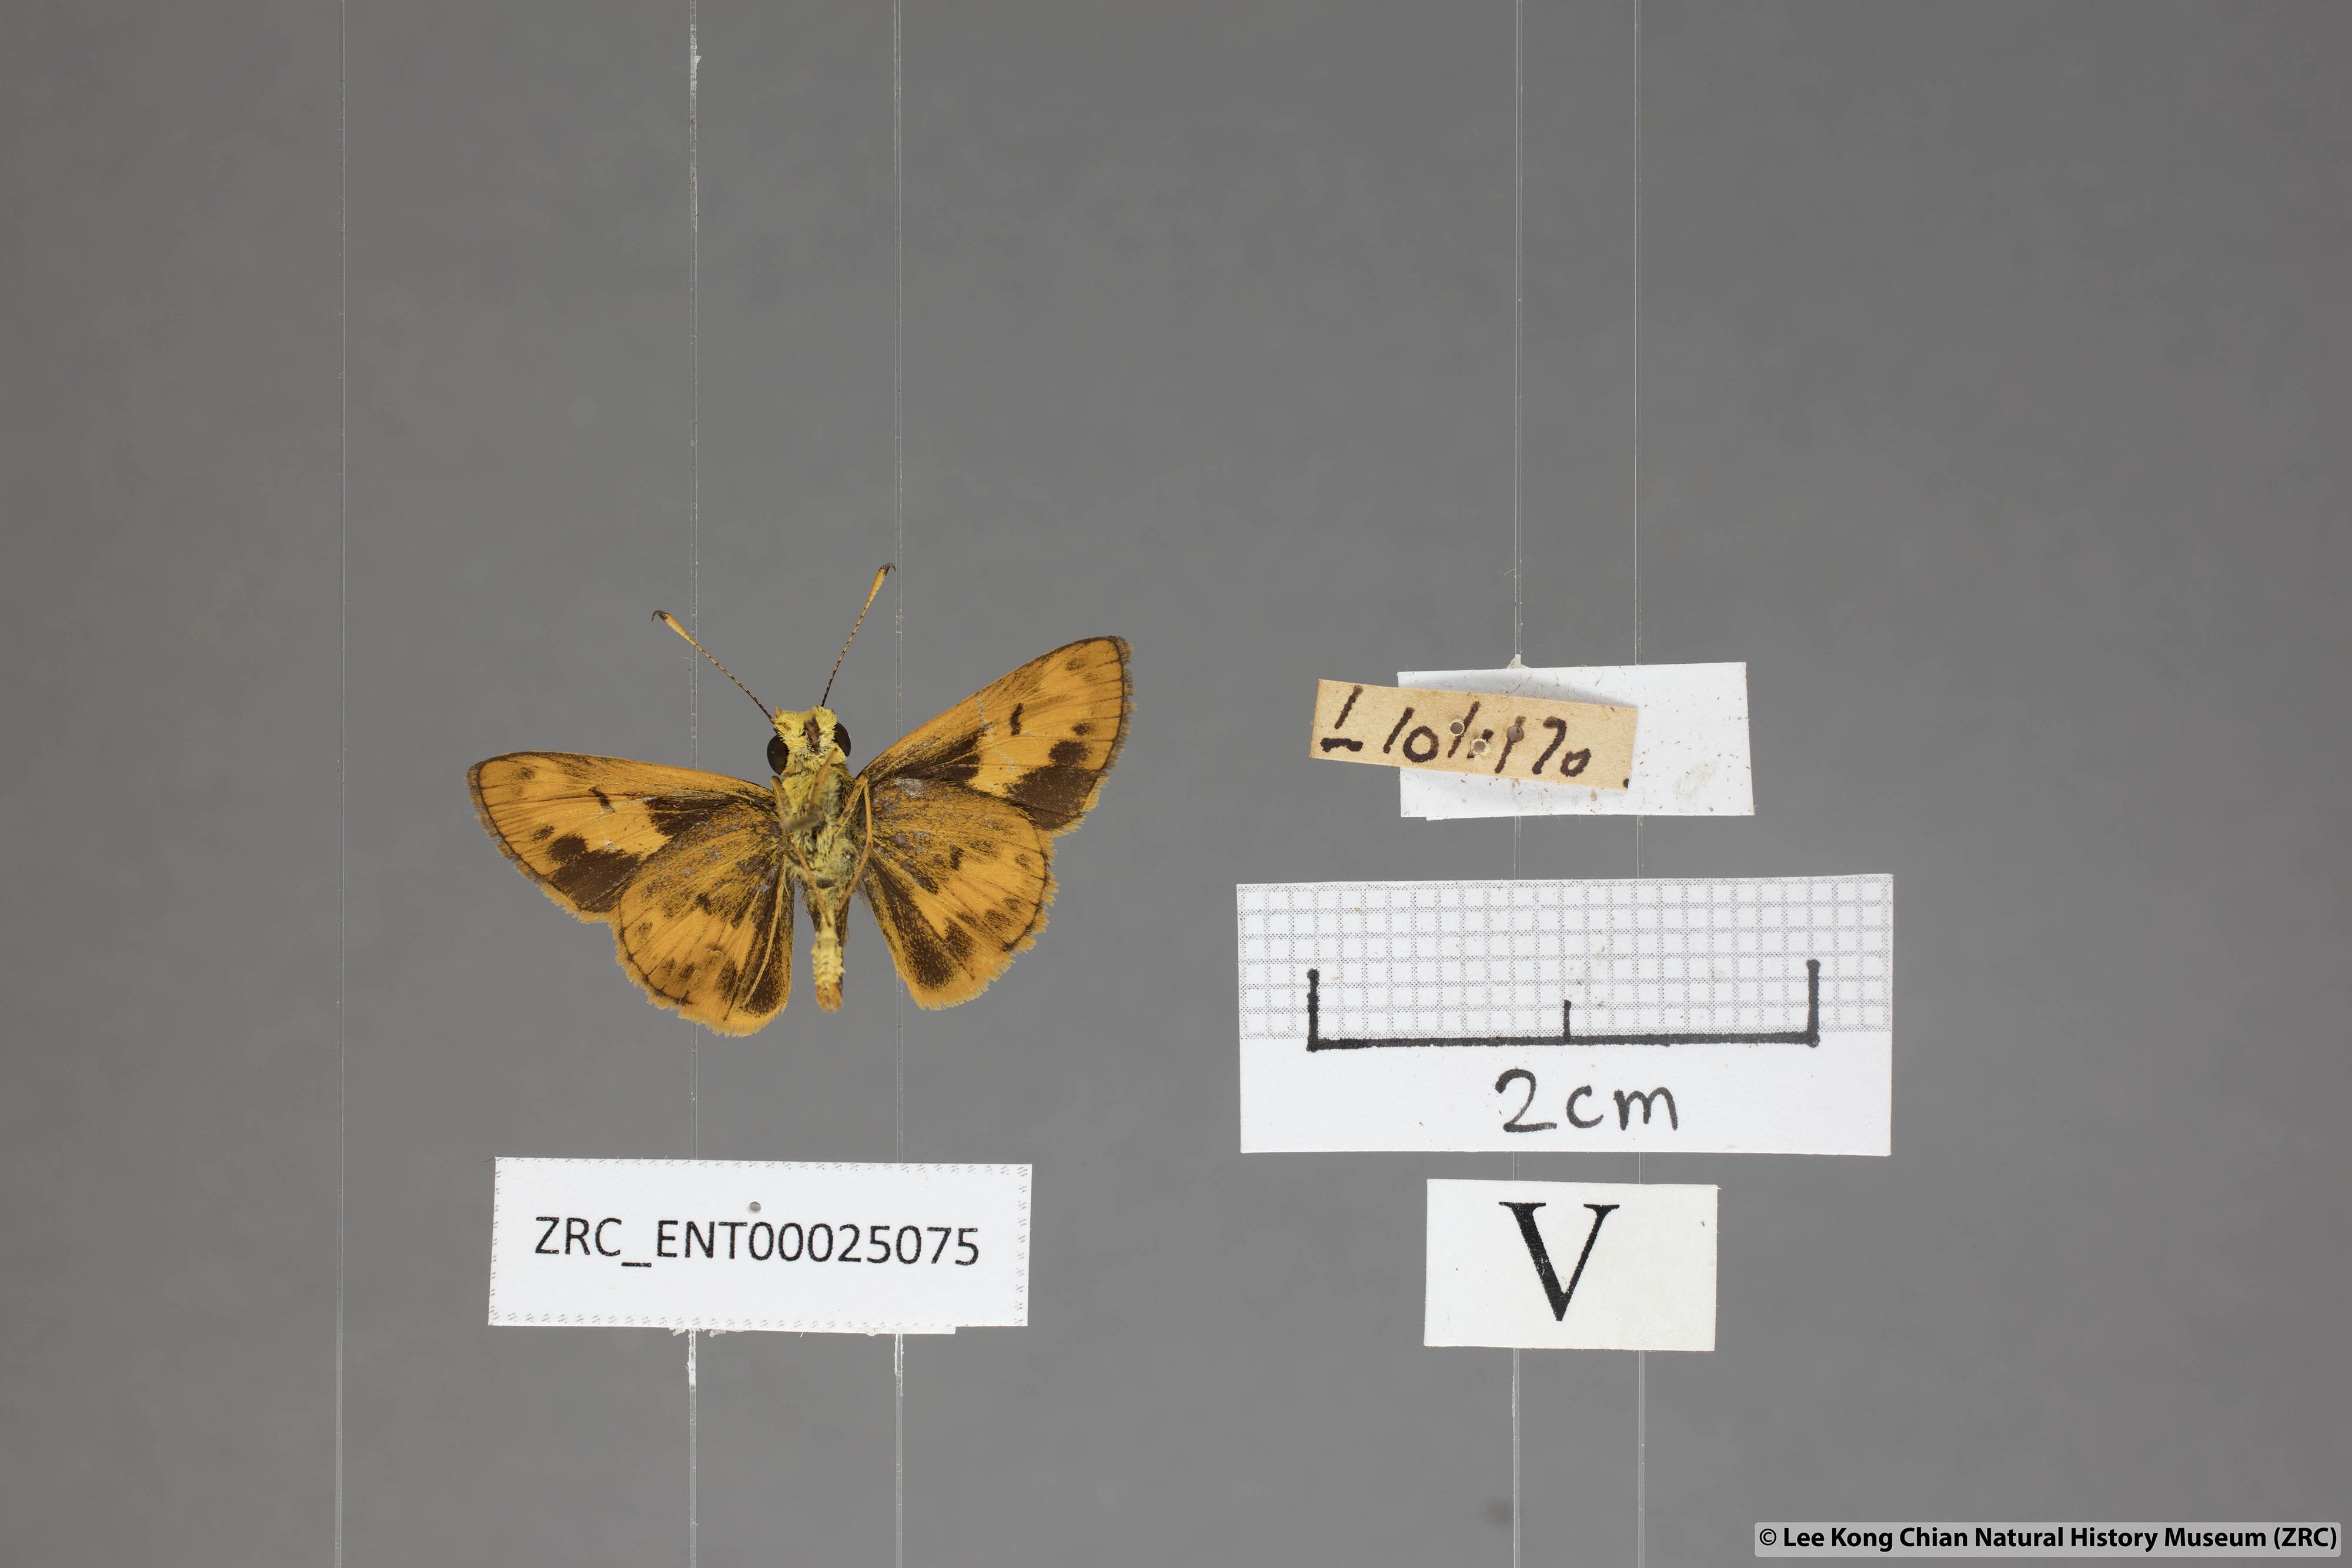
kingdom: Animalia
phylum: Arthropoda
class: Insecta
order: Lepidoptera
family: Hesperiidae
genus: Oriens
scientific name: Oriens gola
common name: Common dartlet
